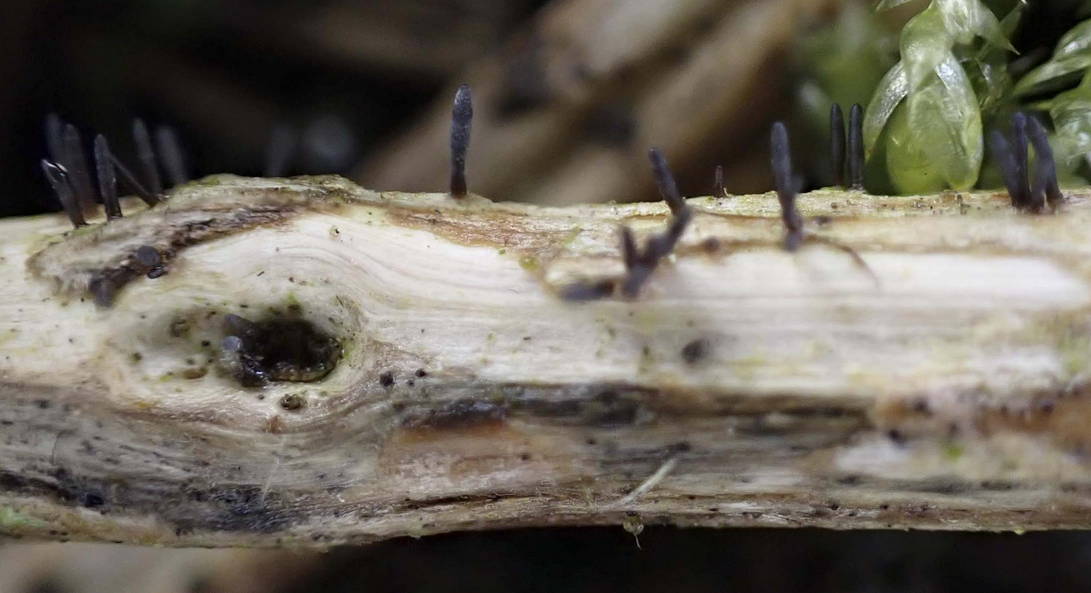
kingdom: Fungi
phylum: Ascomycota
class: Dothideomycetes
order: Acrospermales
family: Acrospermaceae
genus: Acrospermum
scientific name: Acrospermum compressum
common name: nælde-stængeltunge
